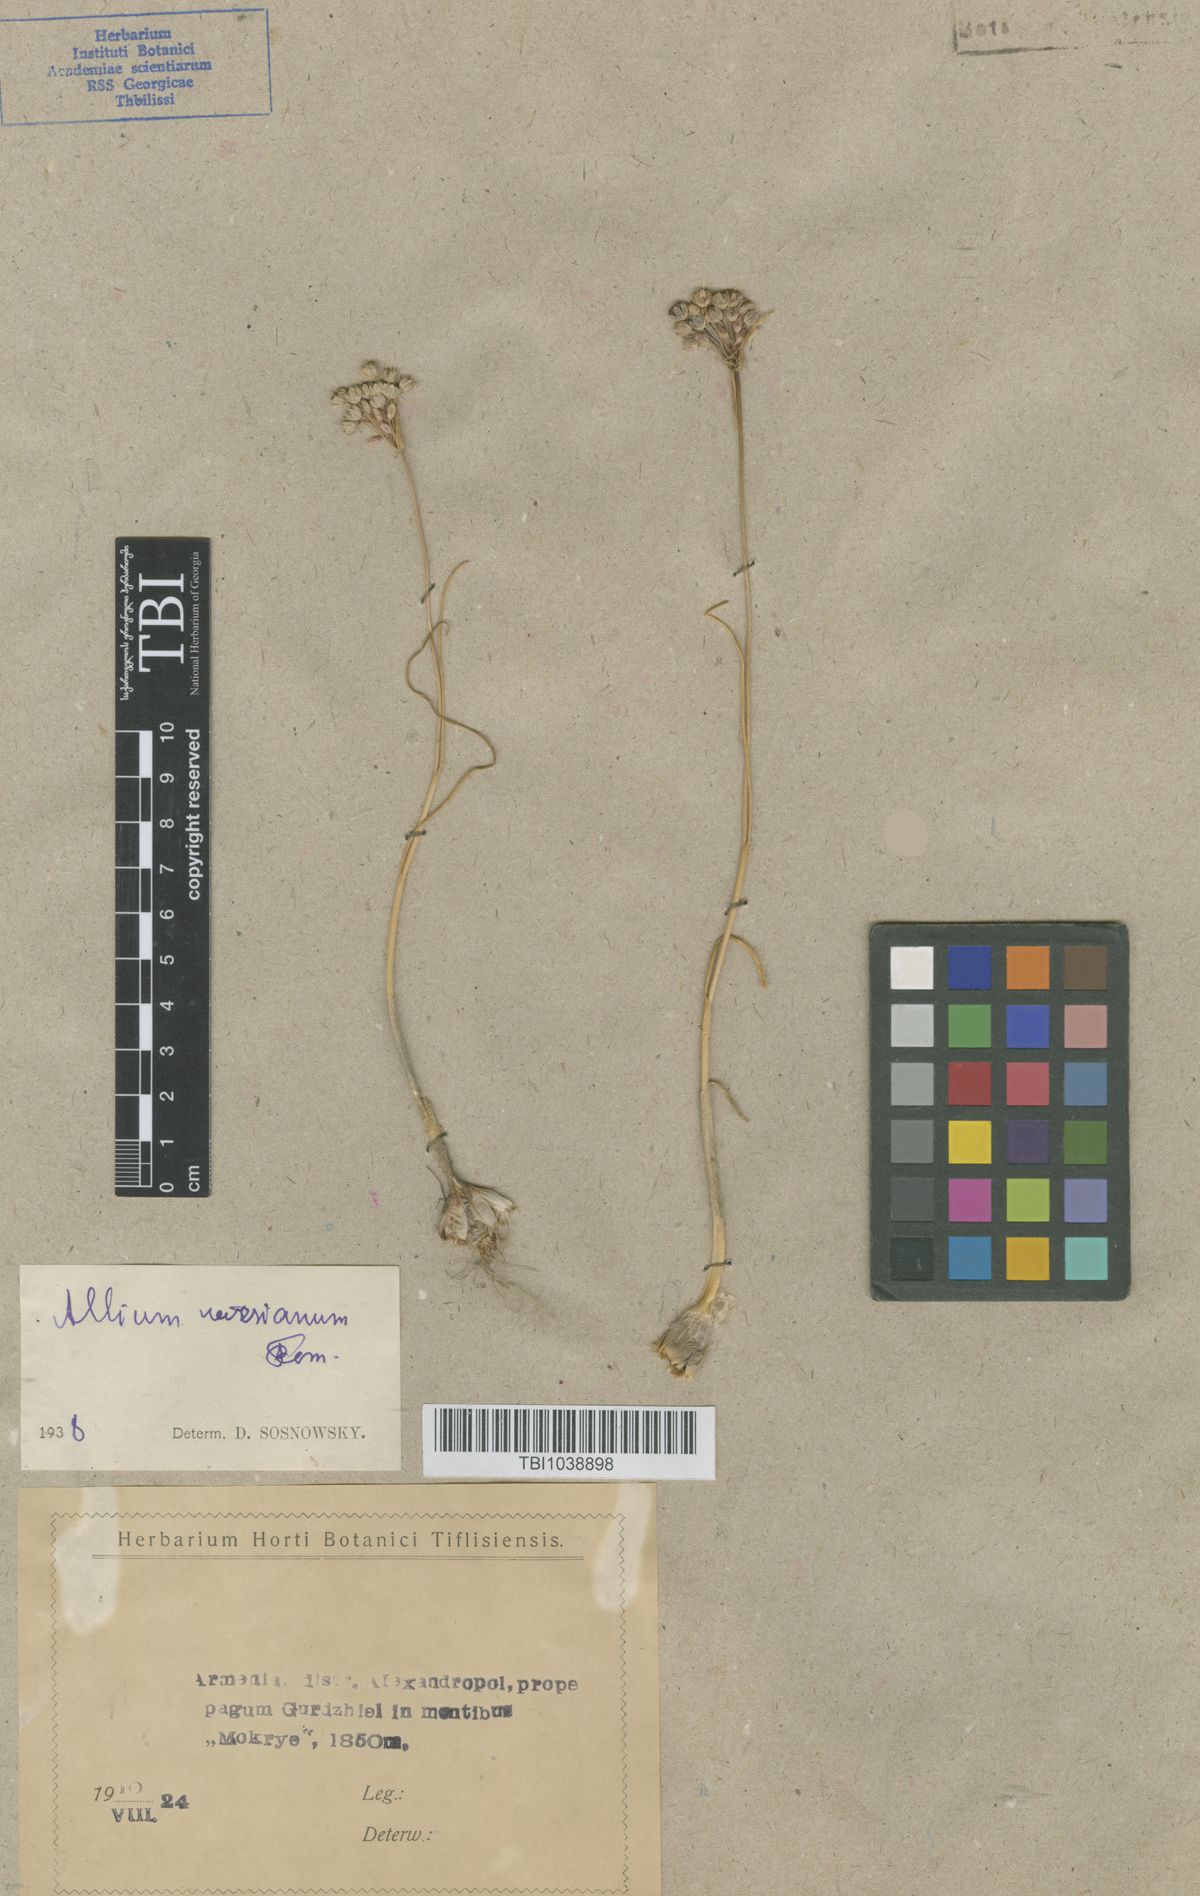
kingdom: Plantae
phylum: Tracheophyta
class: Liliopsida
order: Asparagales
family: Amaryllidaceae
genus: Allium
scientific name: Allium paniculatum
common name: Pale garlic
